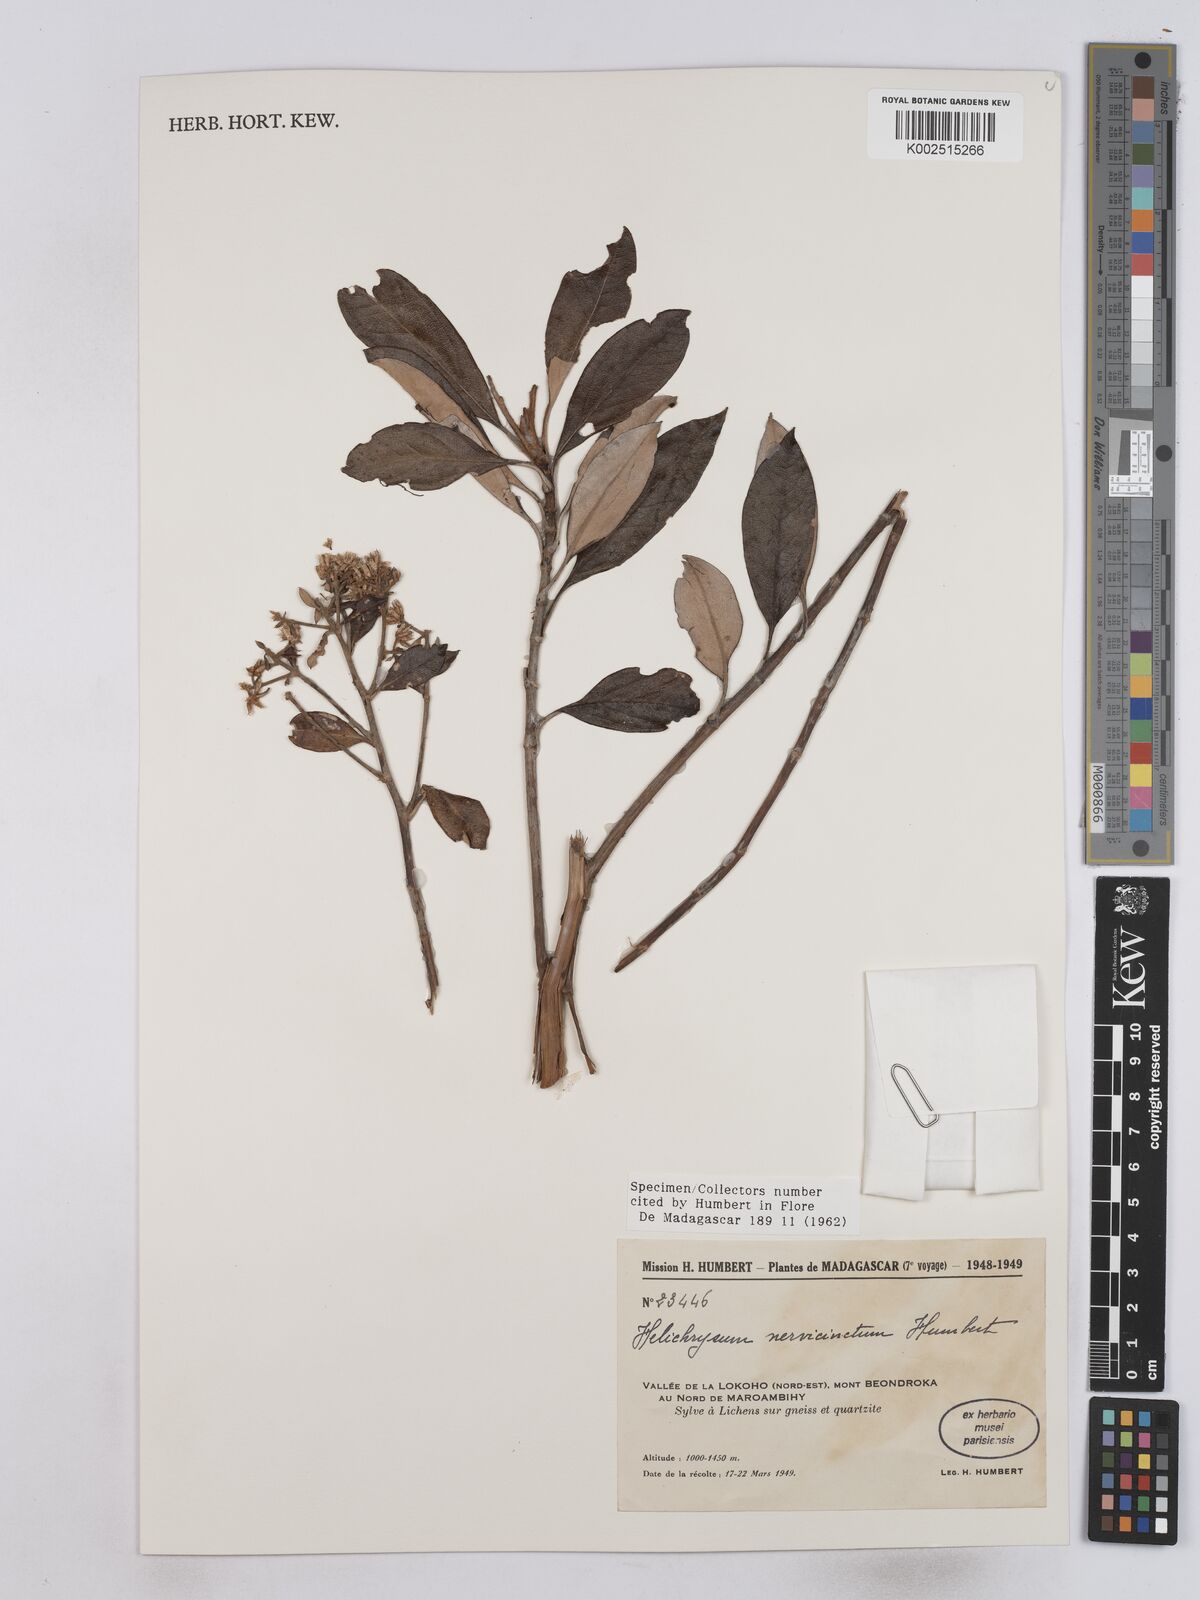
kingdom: Plantae
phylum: Tracheophyta
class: Magnoliopsida
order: Asterales
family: Asteraceae
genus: Helichrysum
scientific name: Helichrysum nervicinctum
